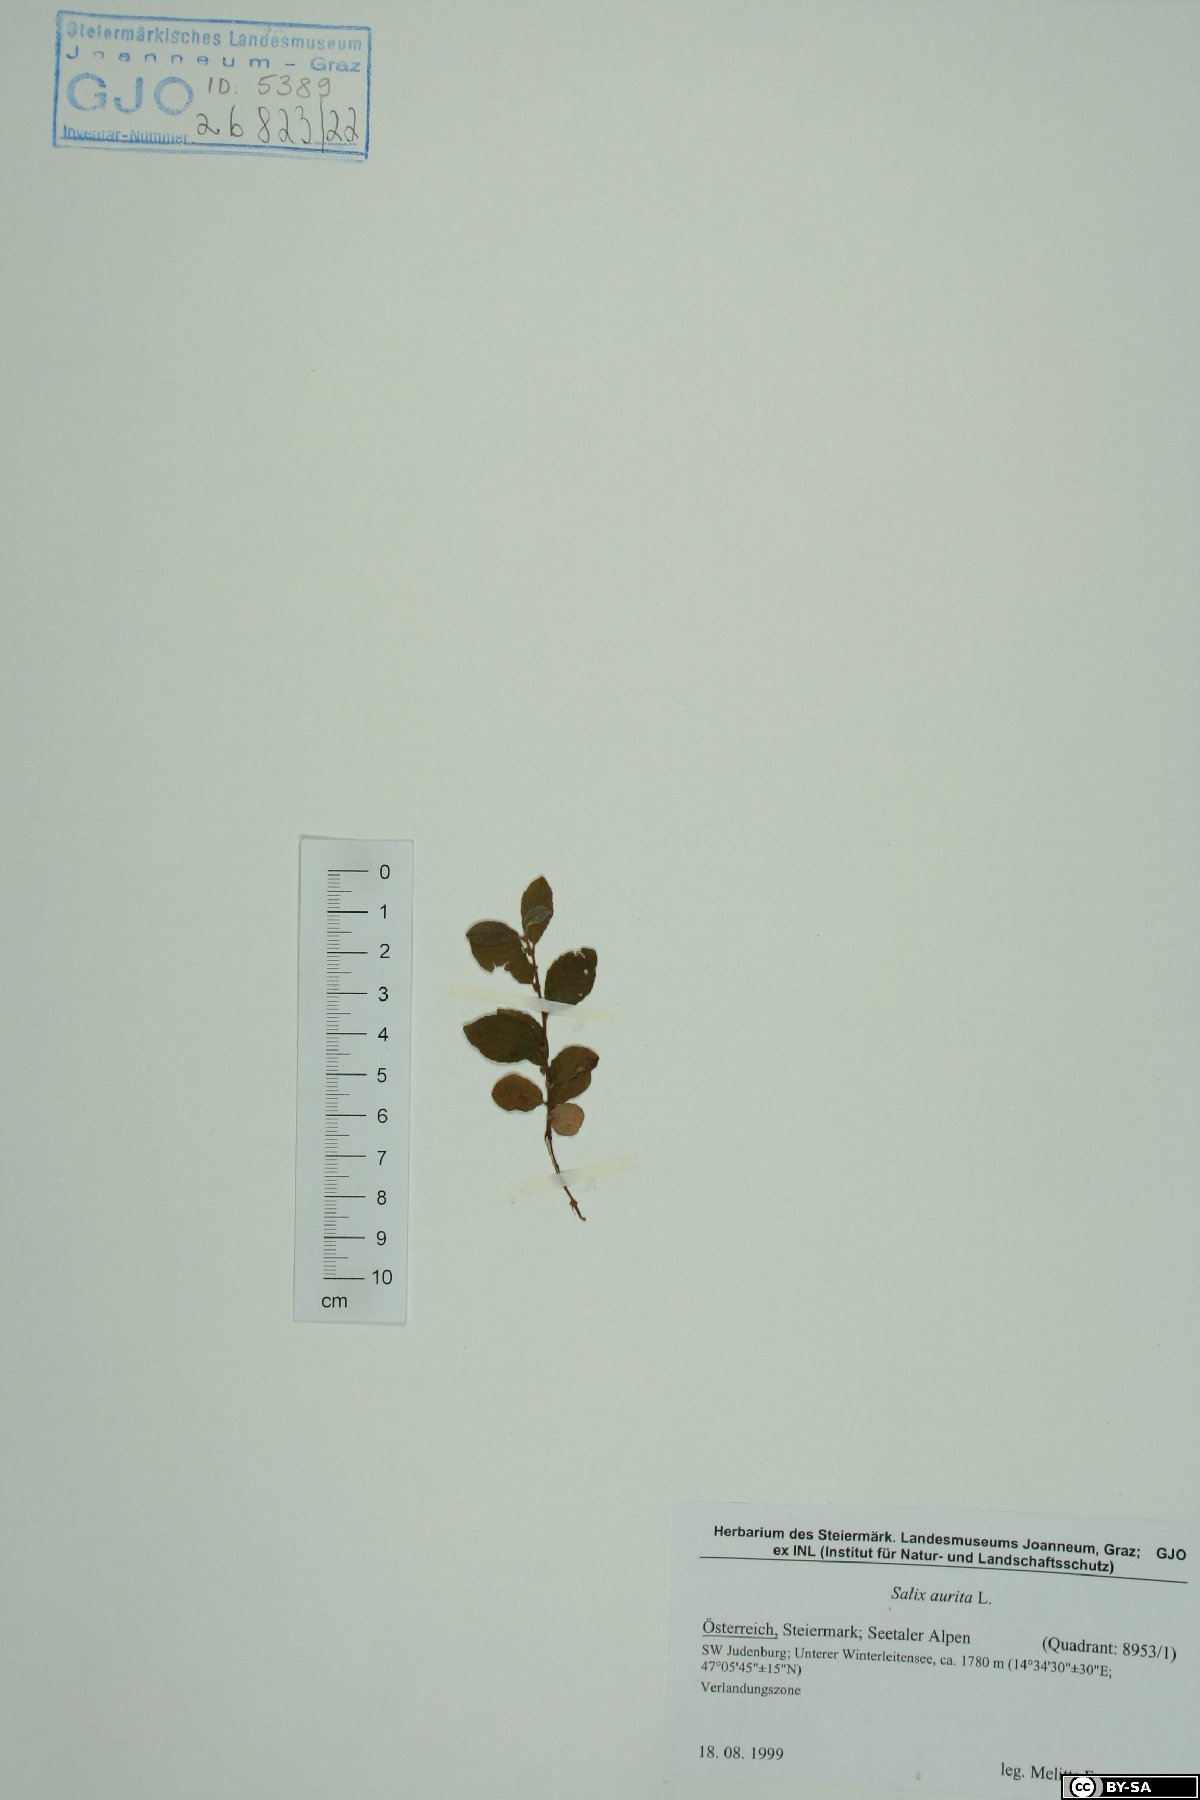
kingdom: Plantae
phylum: Tracheophyta
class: Magnoliopsida
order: Malpighiales
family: Salicaceae
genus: Salix
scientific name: Salix aurita
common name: Eared willow
